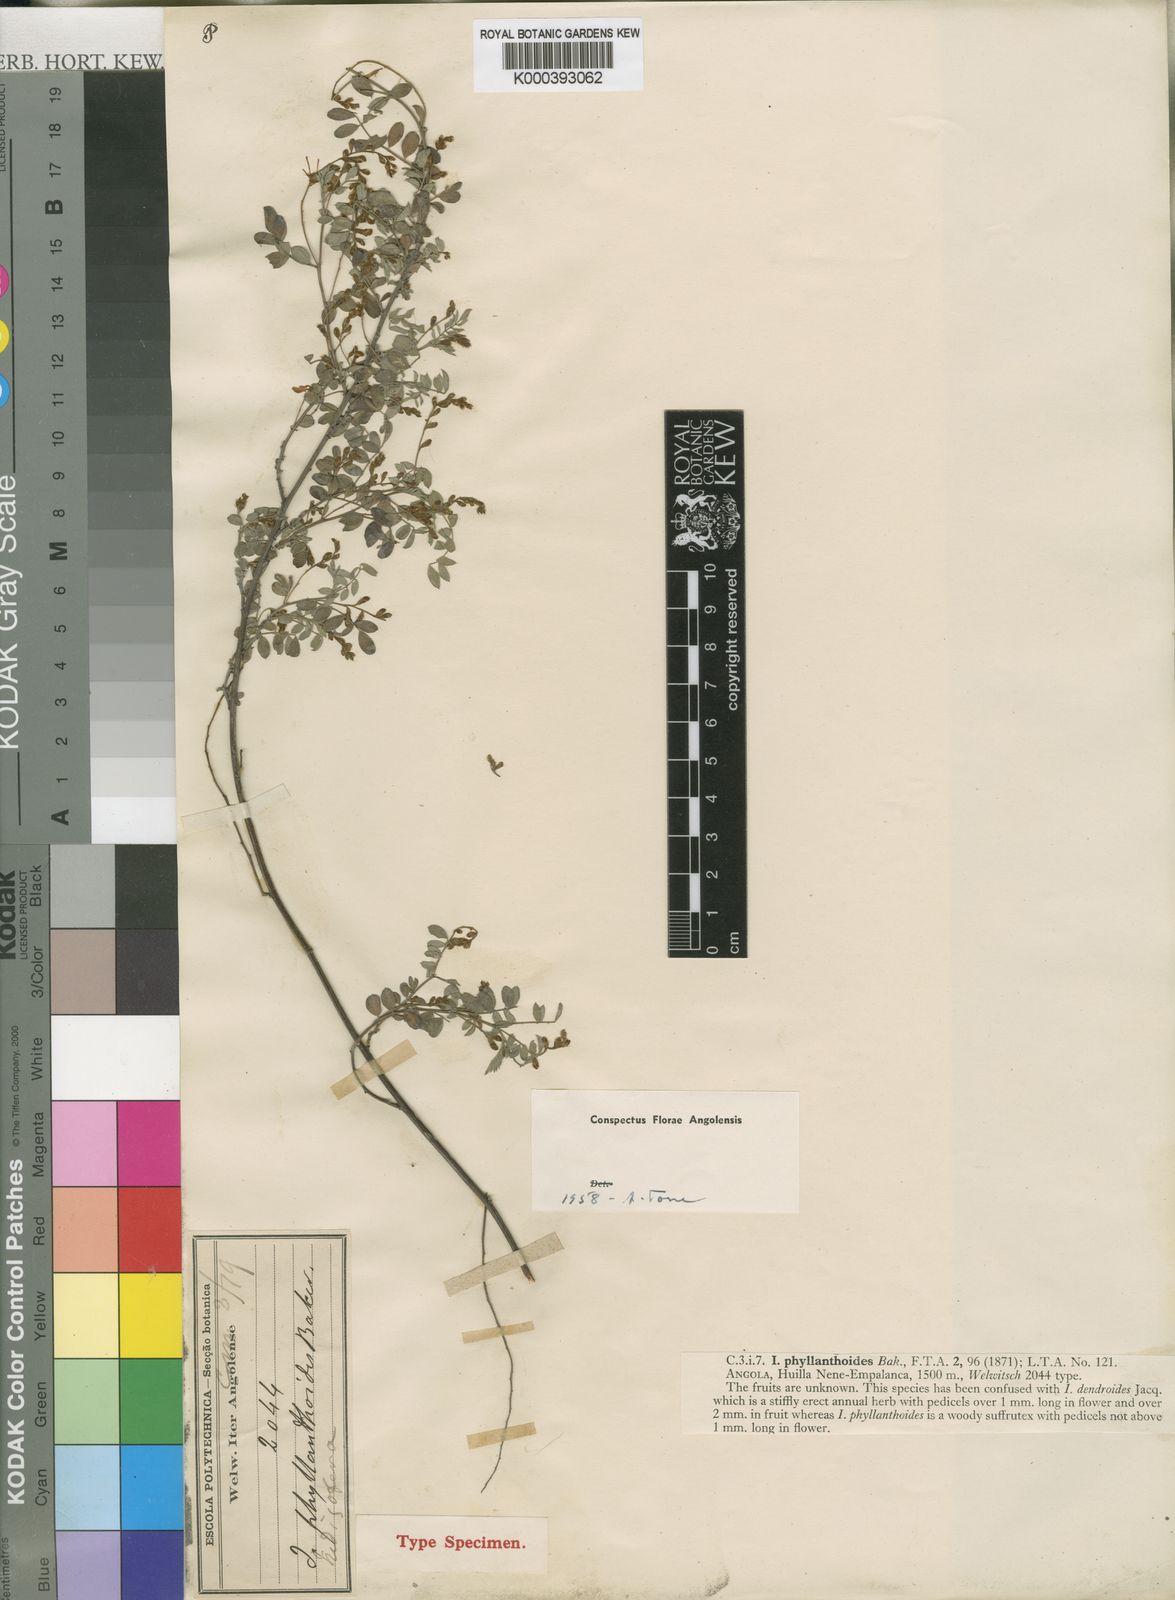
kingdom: Plantae
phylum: Tracheophyta
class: Magnoliopsida
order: Fabales
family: Fabaceae
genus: Indigofera
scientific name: Indigofera phyllanthoides
